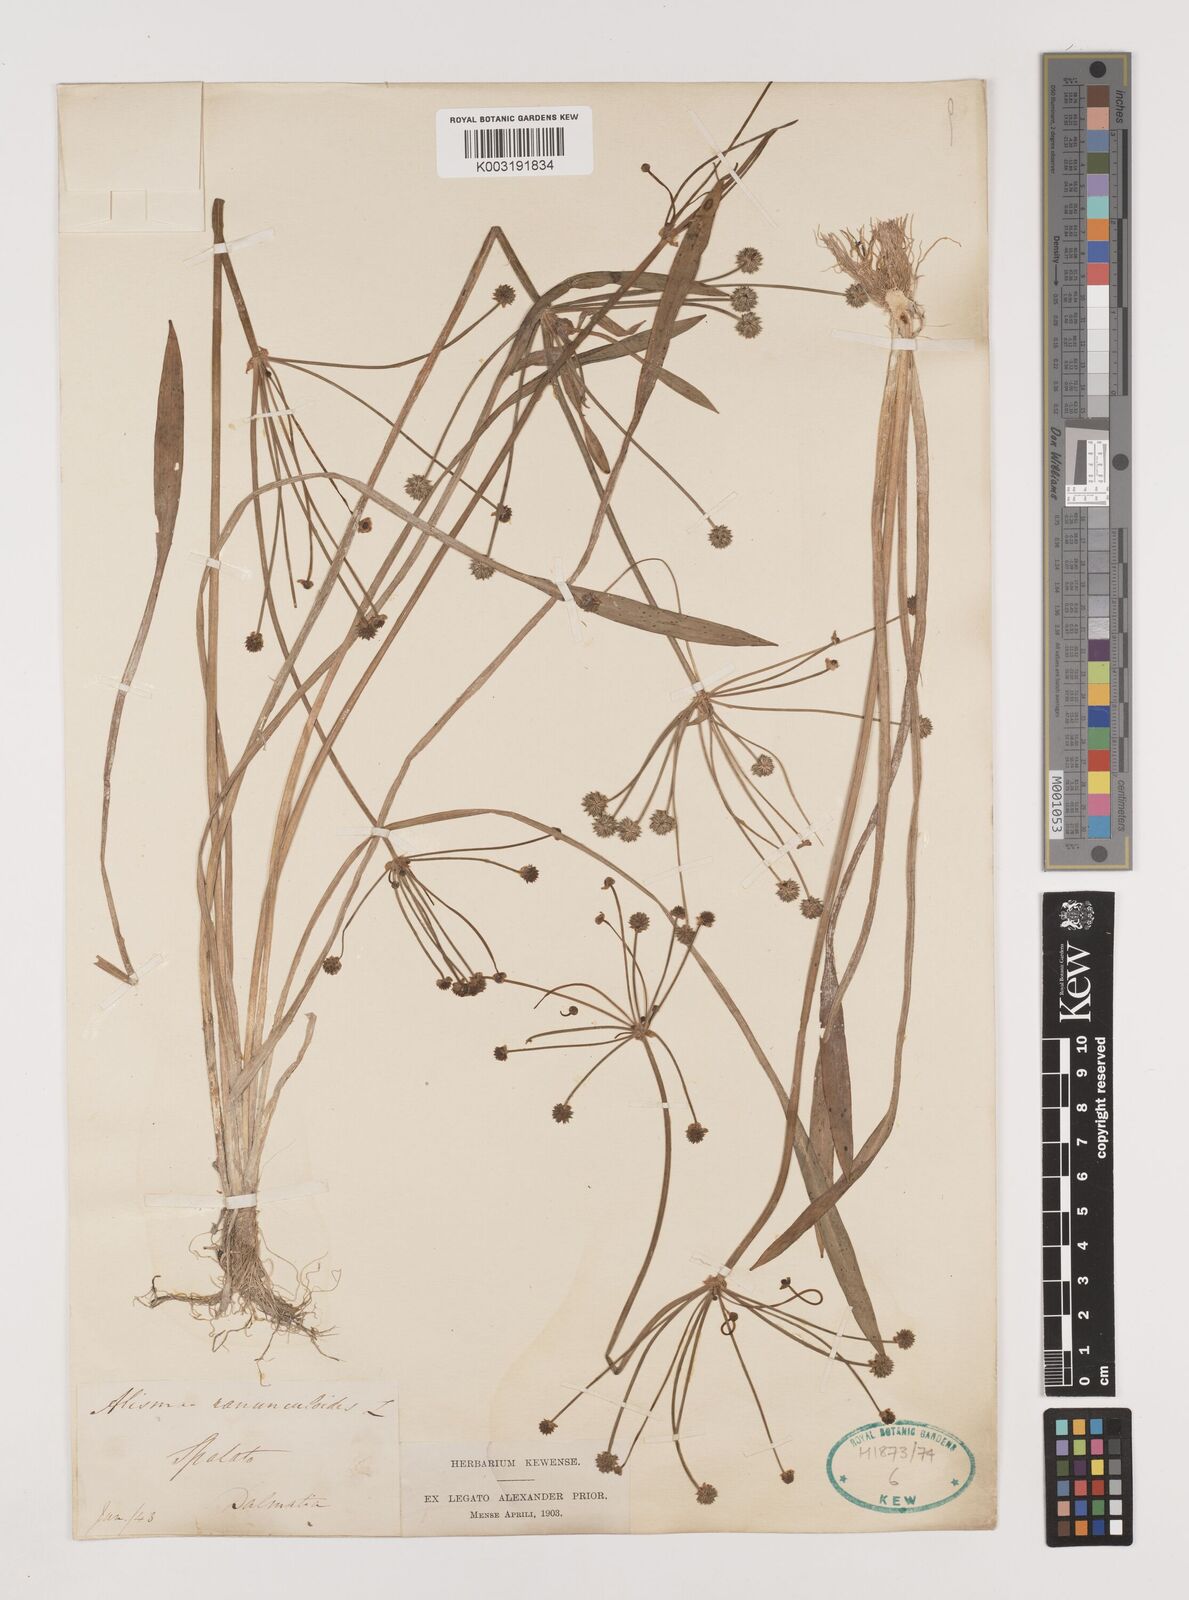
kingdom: Plantae
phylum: Tracheophyta
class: Liliopsida
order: Alismatales
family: Alismataceae
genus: Baldellia
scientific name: Baldellia ranunculoides
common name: Lesser water-plantain
